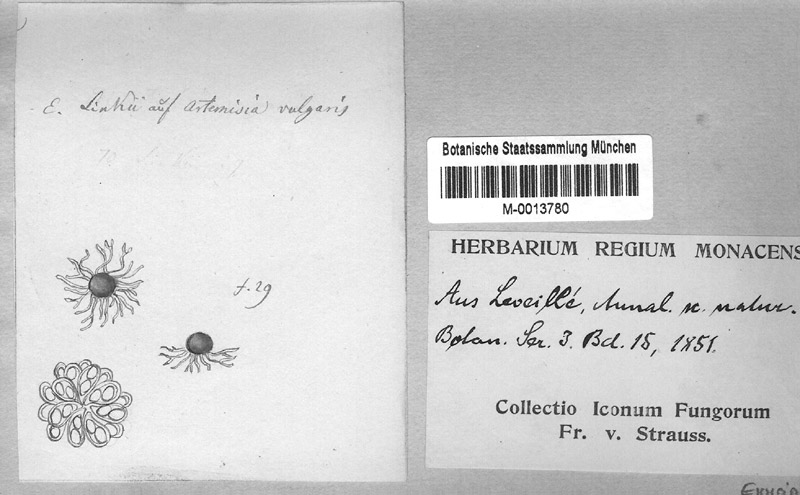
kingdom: Plantae
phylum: Tracheophyta
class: Magnoliopsida
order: Asterales
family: Asteraceae
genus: Artemisia
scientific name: Artemisia vulgaris
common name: Mugwort
